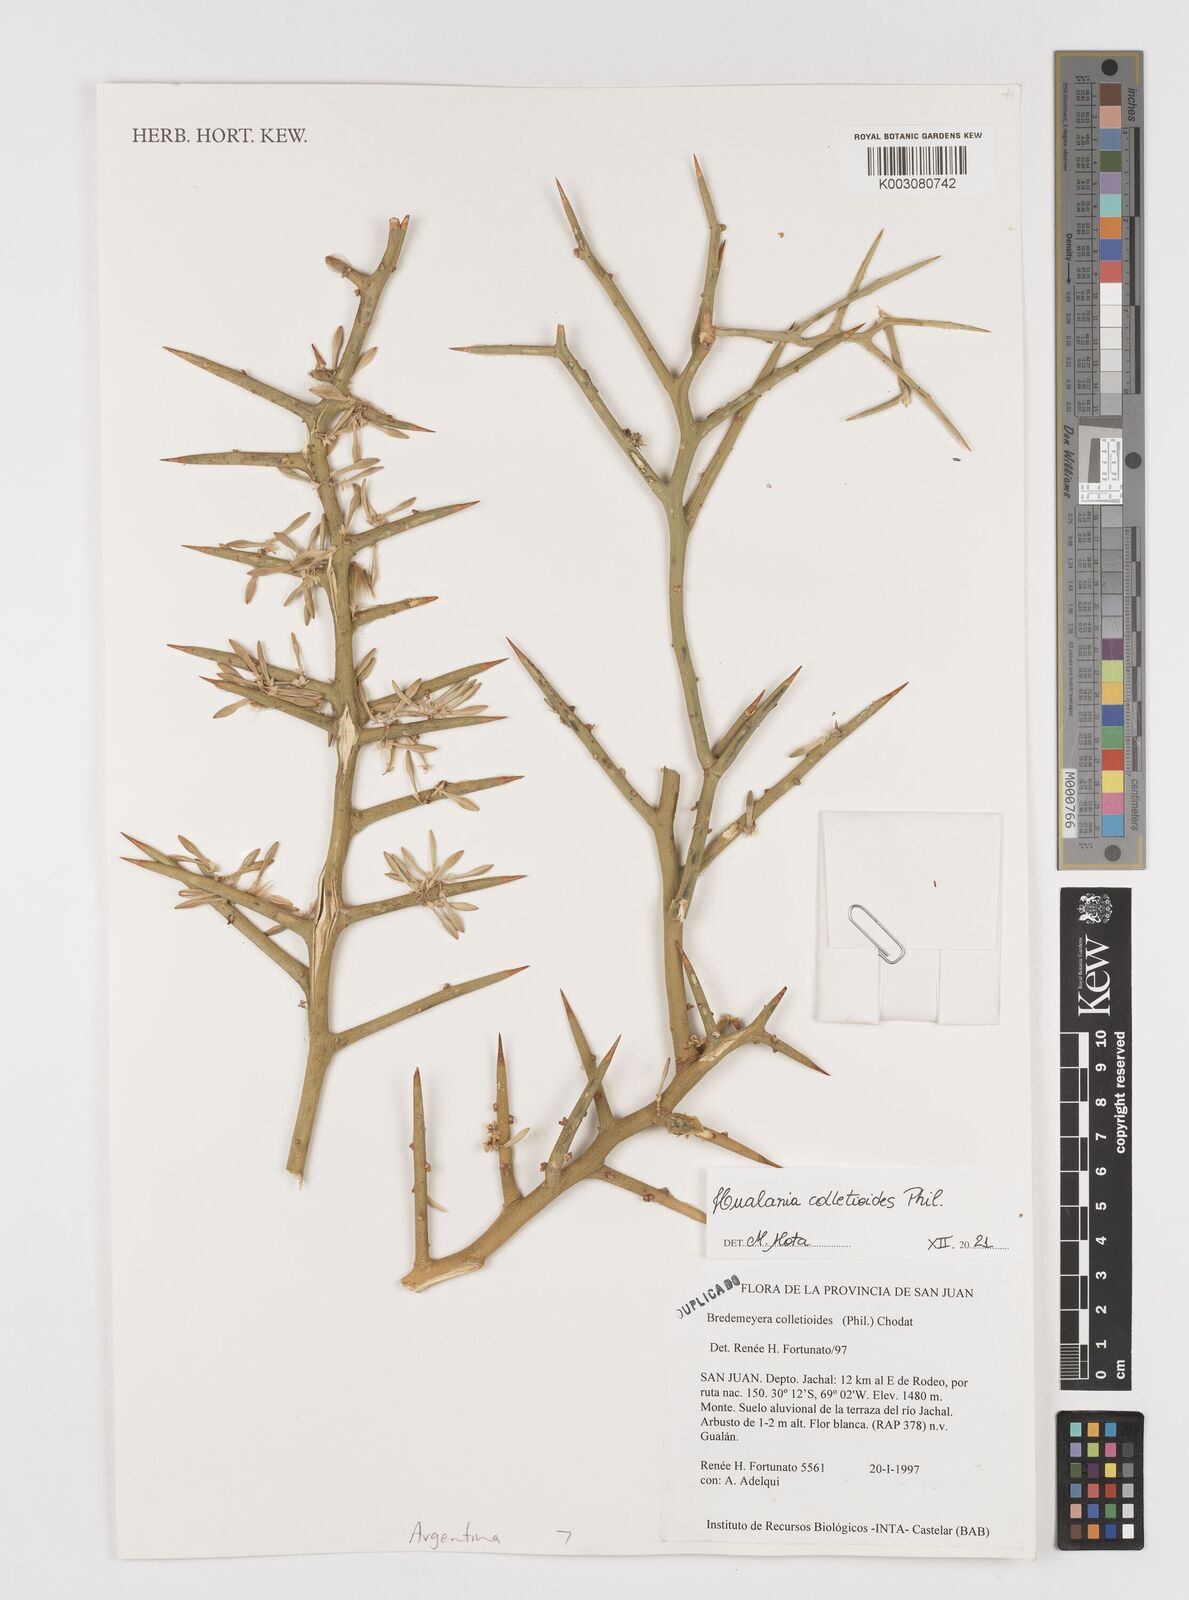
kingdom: Plantae
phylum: Tracheophyta
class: Magnoliopsida
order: Fabales
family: Polygalaceae
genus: Bredemeyera
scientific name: Bredemeyera colletioides
